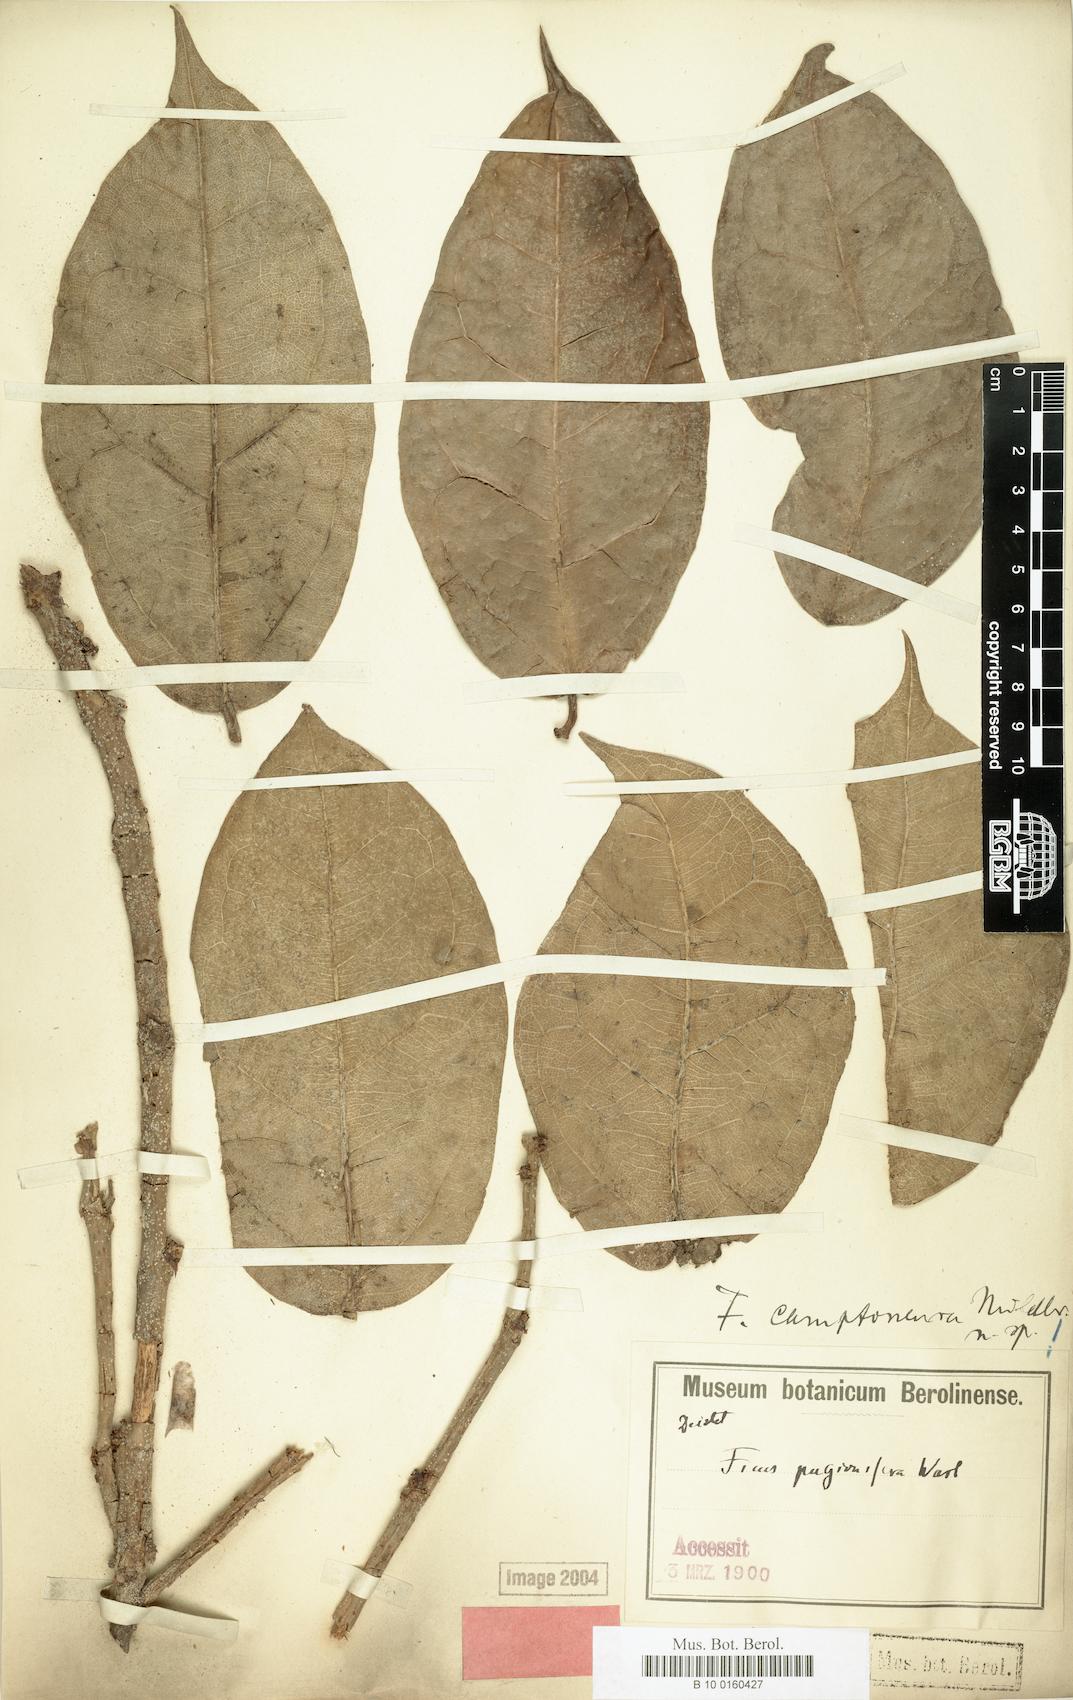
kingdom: Plantae
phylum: Tracheophyta
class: Magnoliopsida
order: Rosales
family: Moraceae
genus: Ficus
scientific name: Ficus ardisioides
